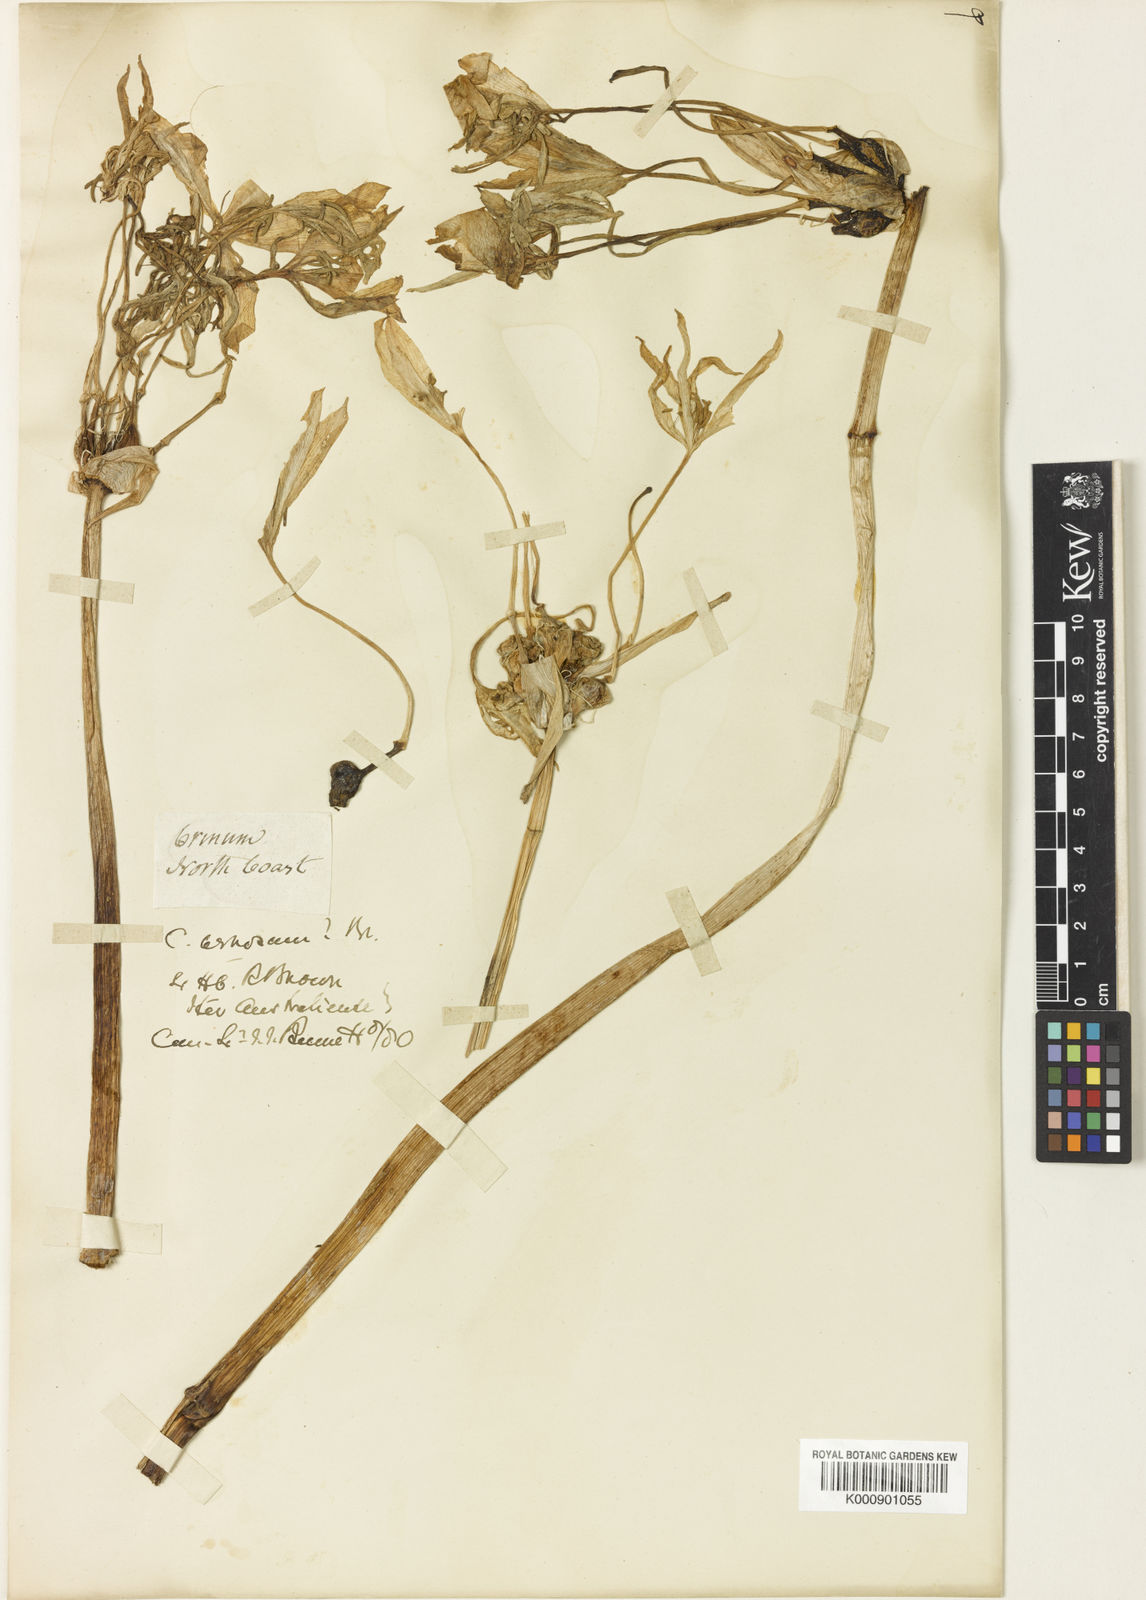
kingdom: Plantae
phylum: Tracheophyta
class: Liliopsida
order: Asparagales
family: Amaryllidaceae
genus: Crinum
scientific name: Crinum venosum
